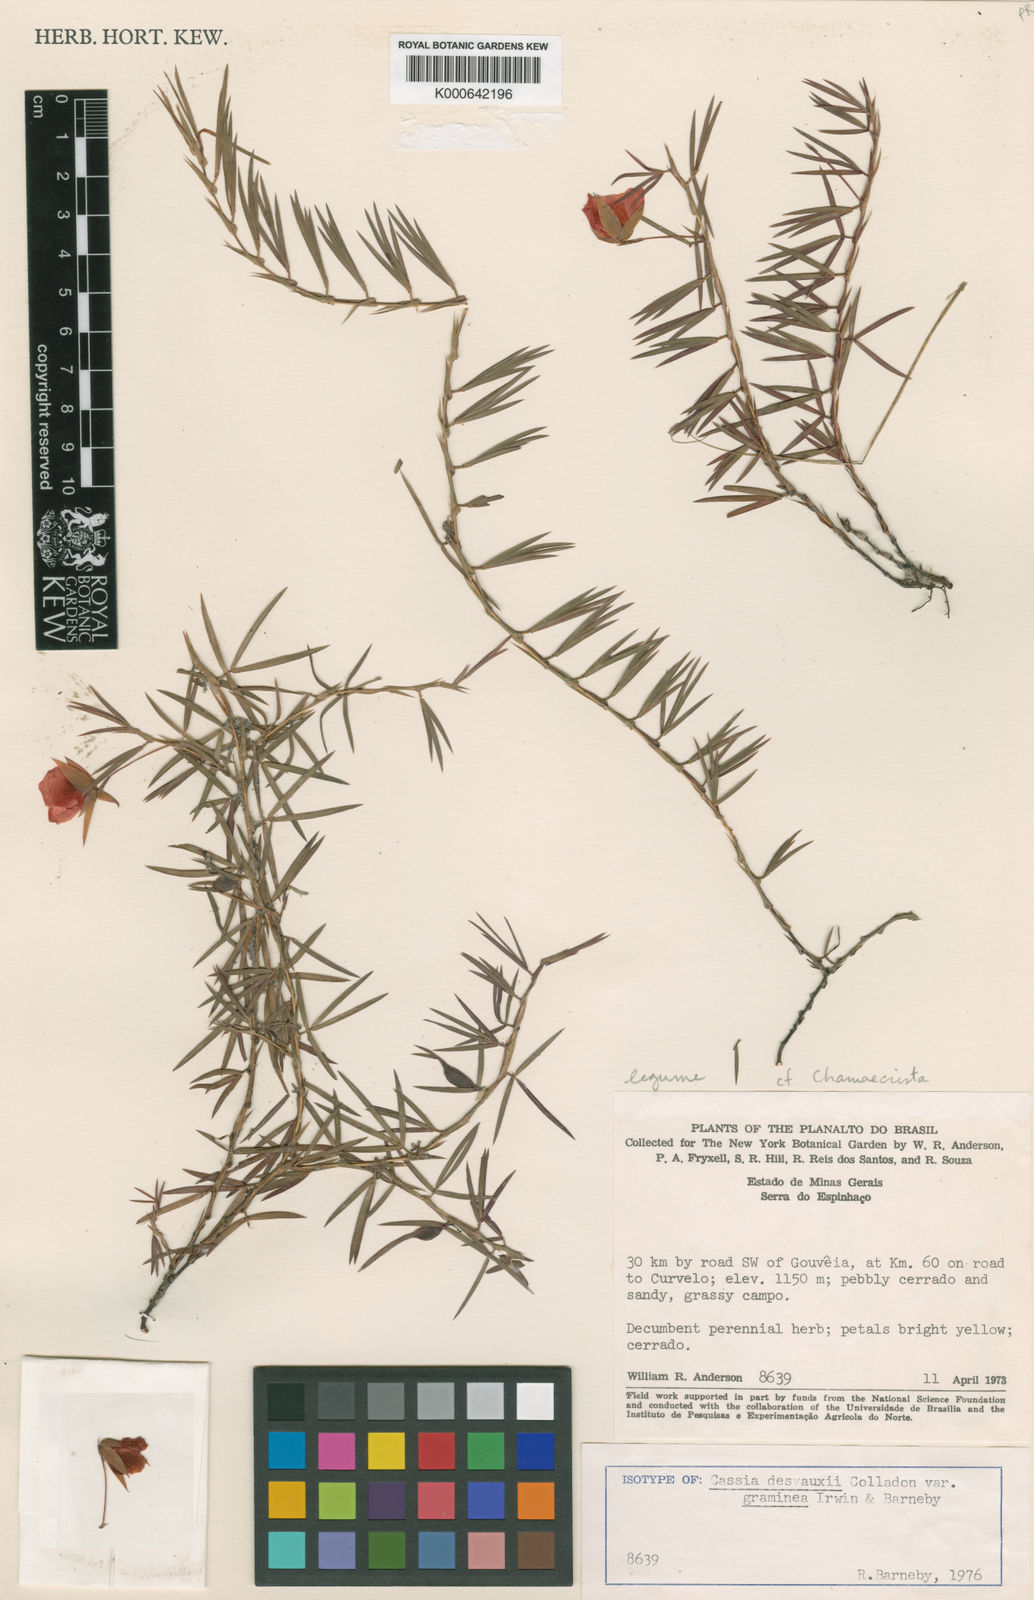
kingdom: Plantae
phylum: Tracheophyta
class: Magnoliopsida
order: Fabales
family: Fabaceae
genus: Chamaecrista
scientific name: Chamaecrista desvauxii
